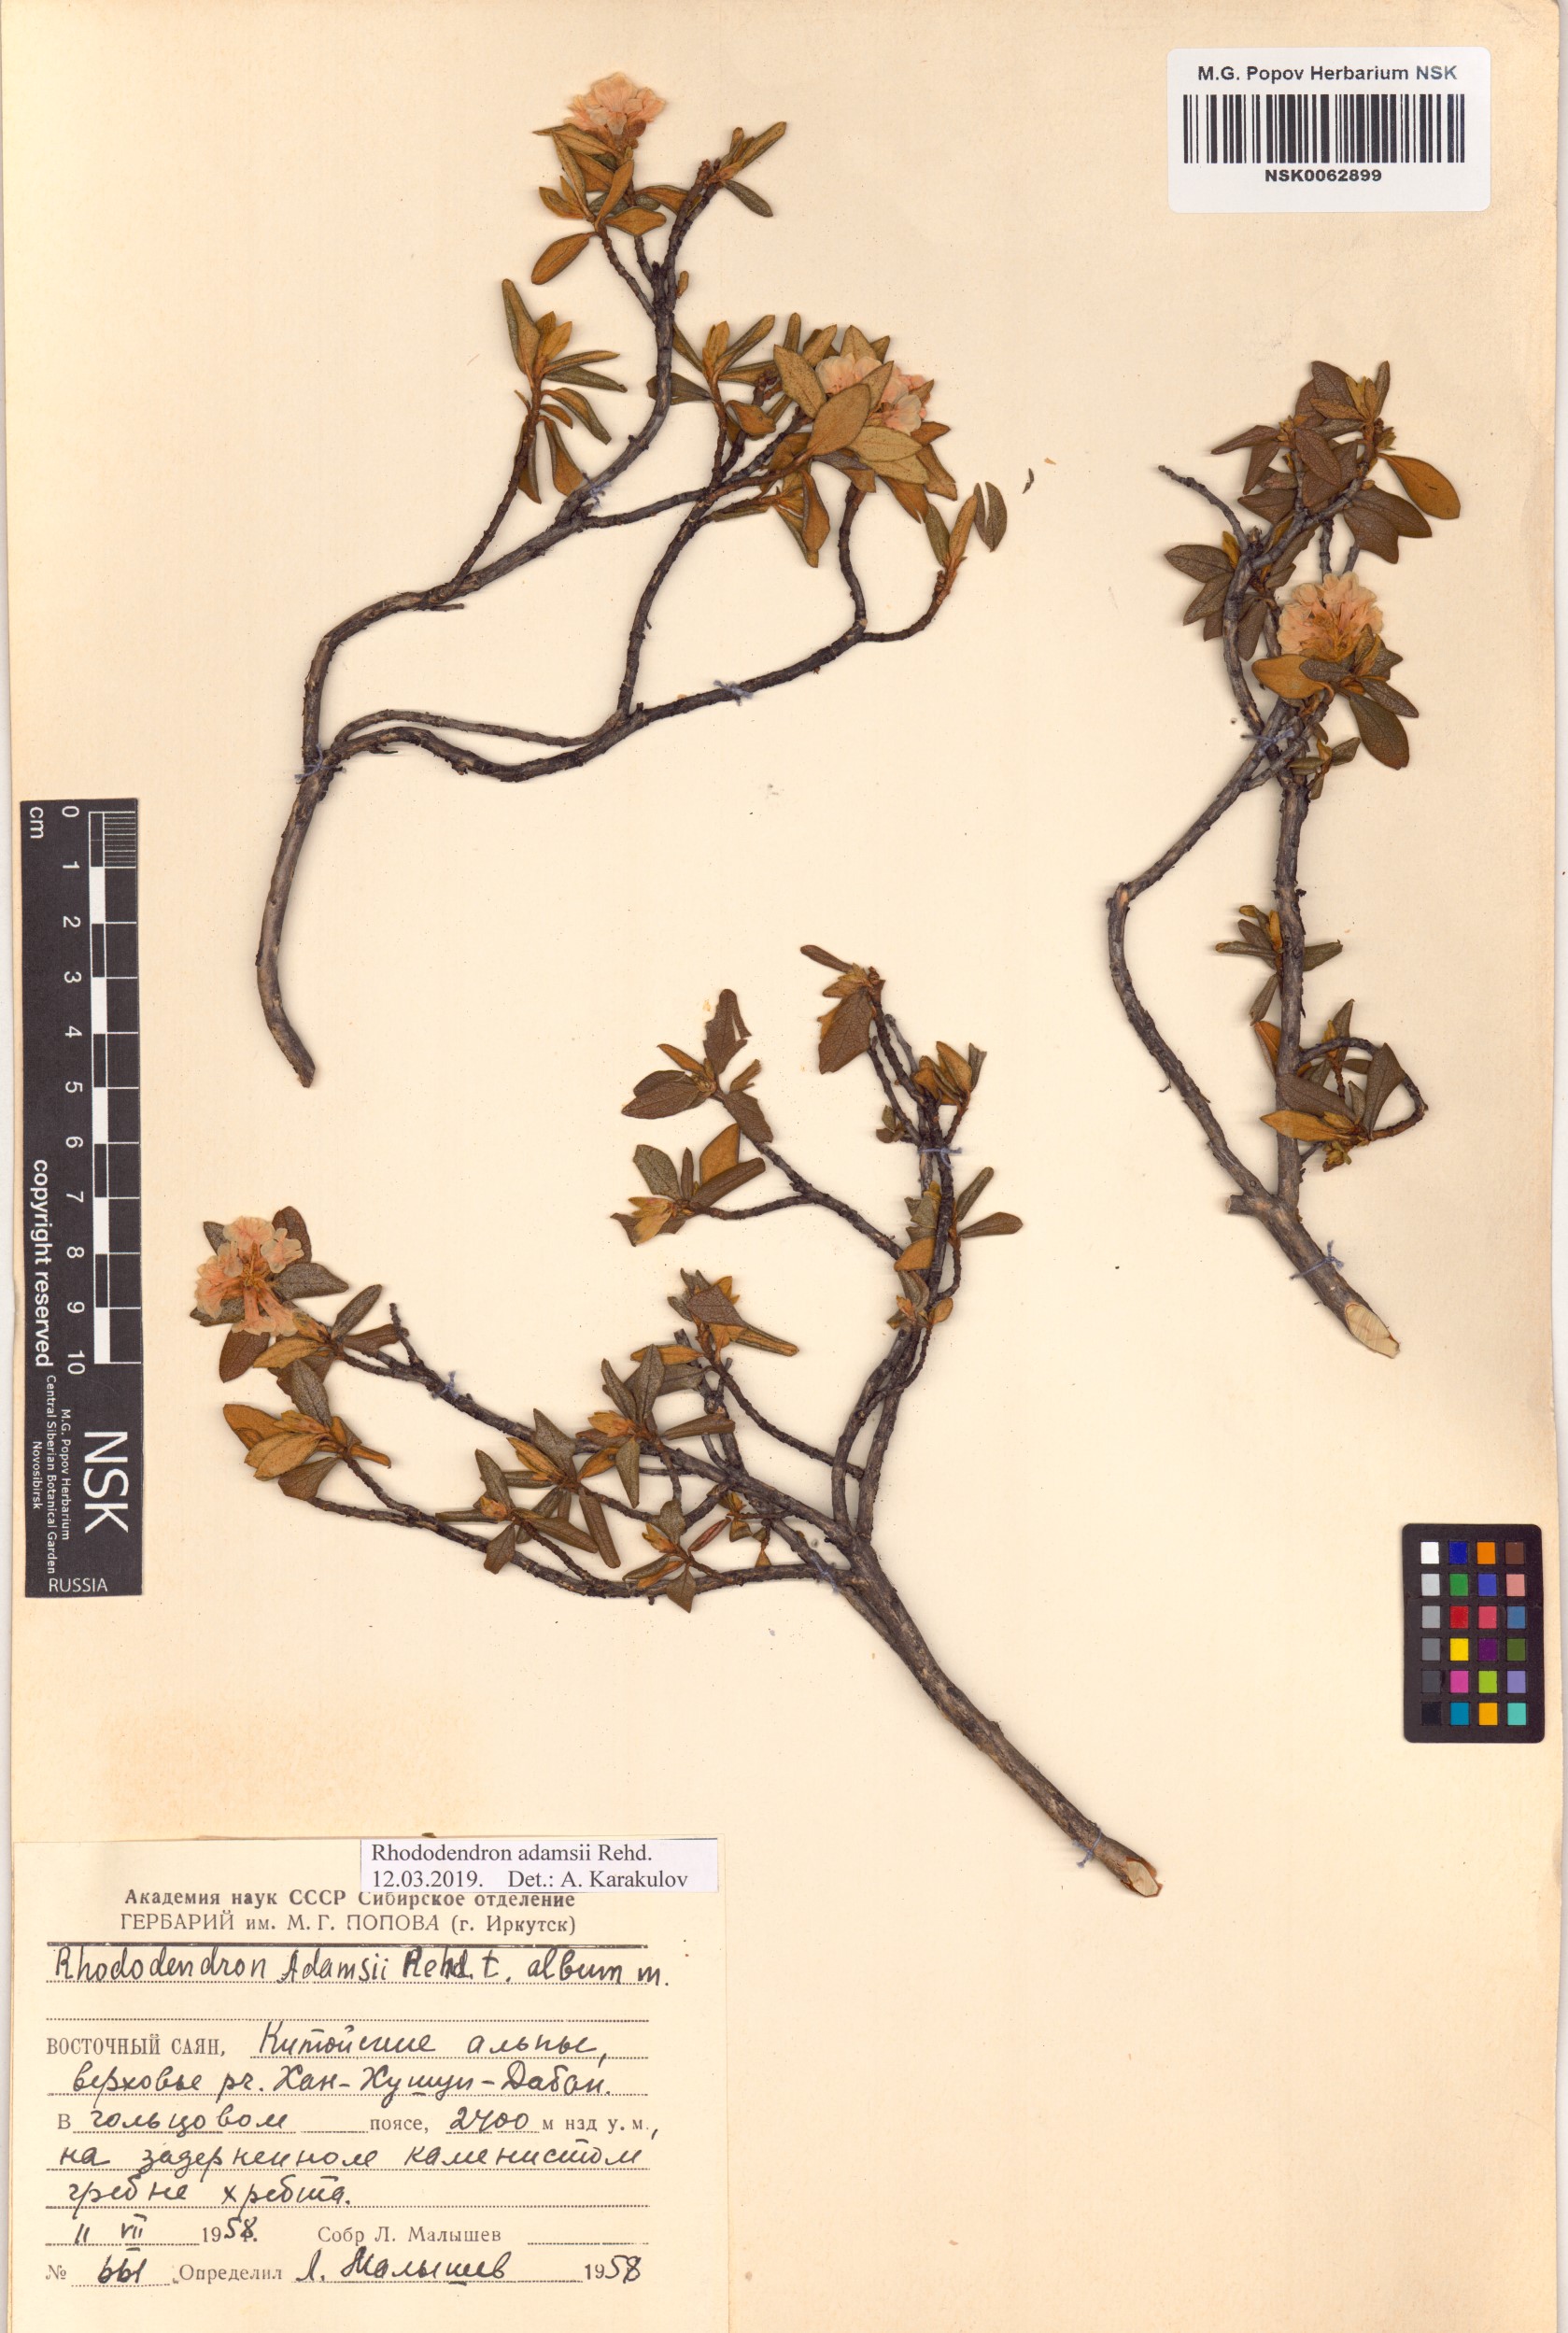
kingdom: Plantae
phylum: Tracheophyta
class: Magnoliopsida
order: Ericales
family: Ericaceae
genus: Rhododendron
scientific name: Rhododendron adamsii
